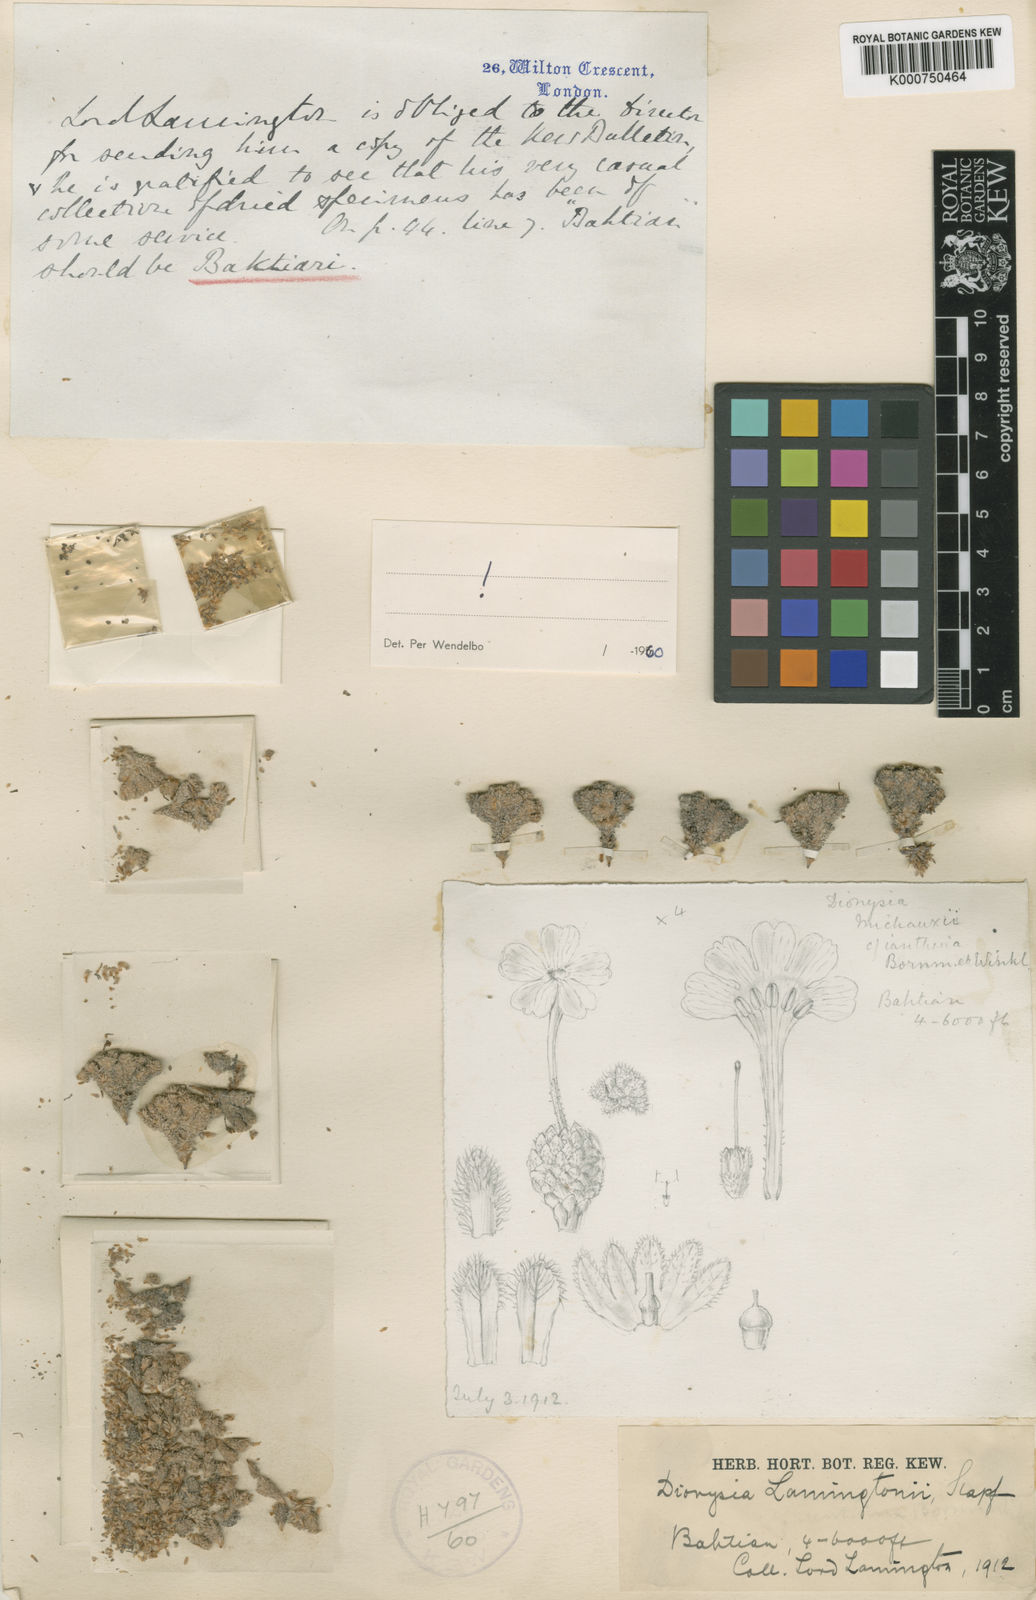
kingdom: Plantae
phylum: Tracheophyta
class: Magnoliopsida
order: Ericales
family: Primulaceae
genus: Dionysia
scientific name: Dionysia lamingtonii
